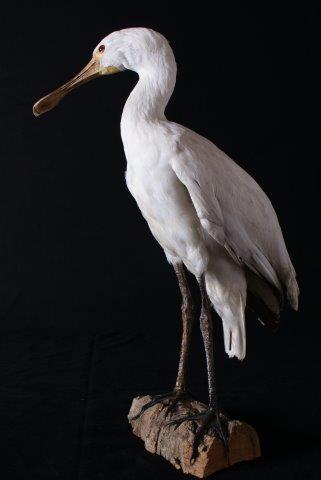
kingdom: Animalia
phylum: Chordata
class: Aves
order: Pelecaniformes
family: Threskiornithidae
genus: Platalea
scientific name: Platalea leucorodia
